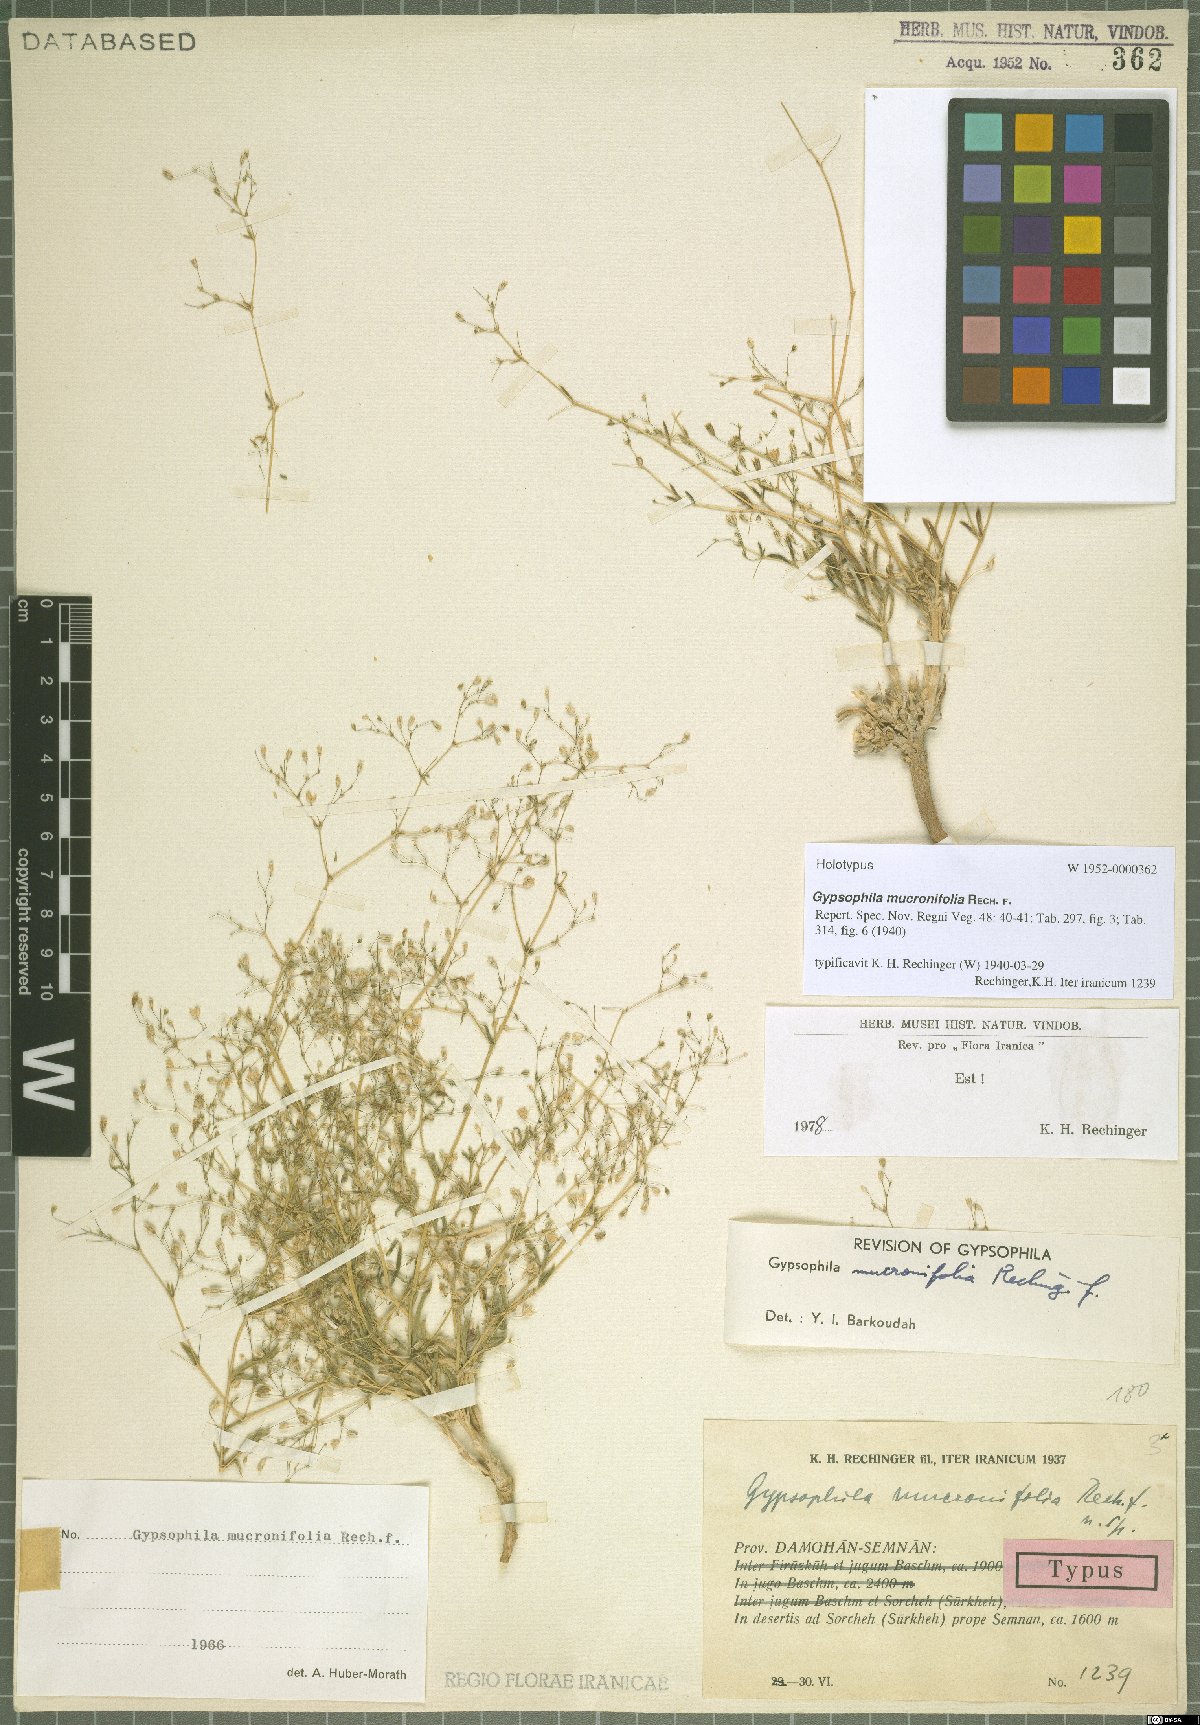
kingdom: Plantae
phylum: Tracheophyta
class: Magnoliopsida
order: Caryophyllales
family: Caryophyllaceae
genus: Gypsophila
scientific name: Gypsophila mucronifolia
